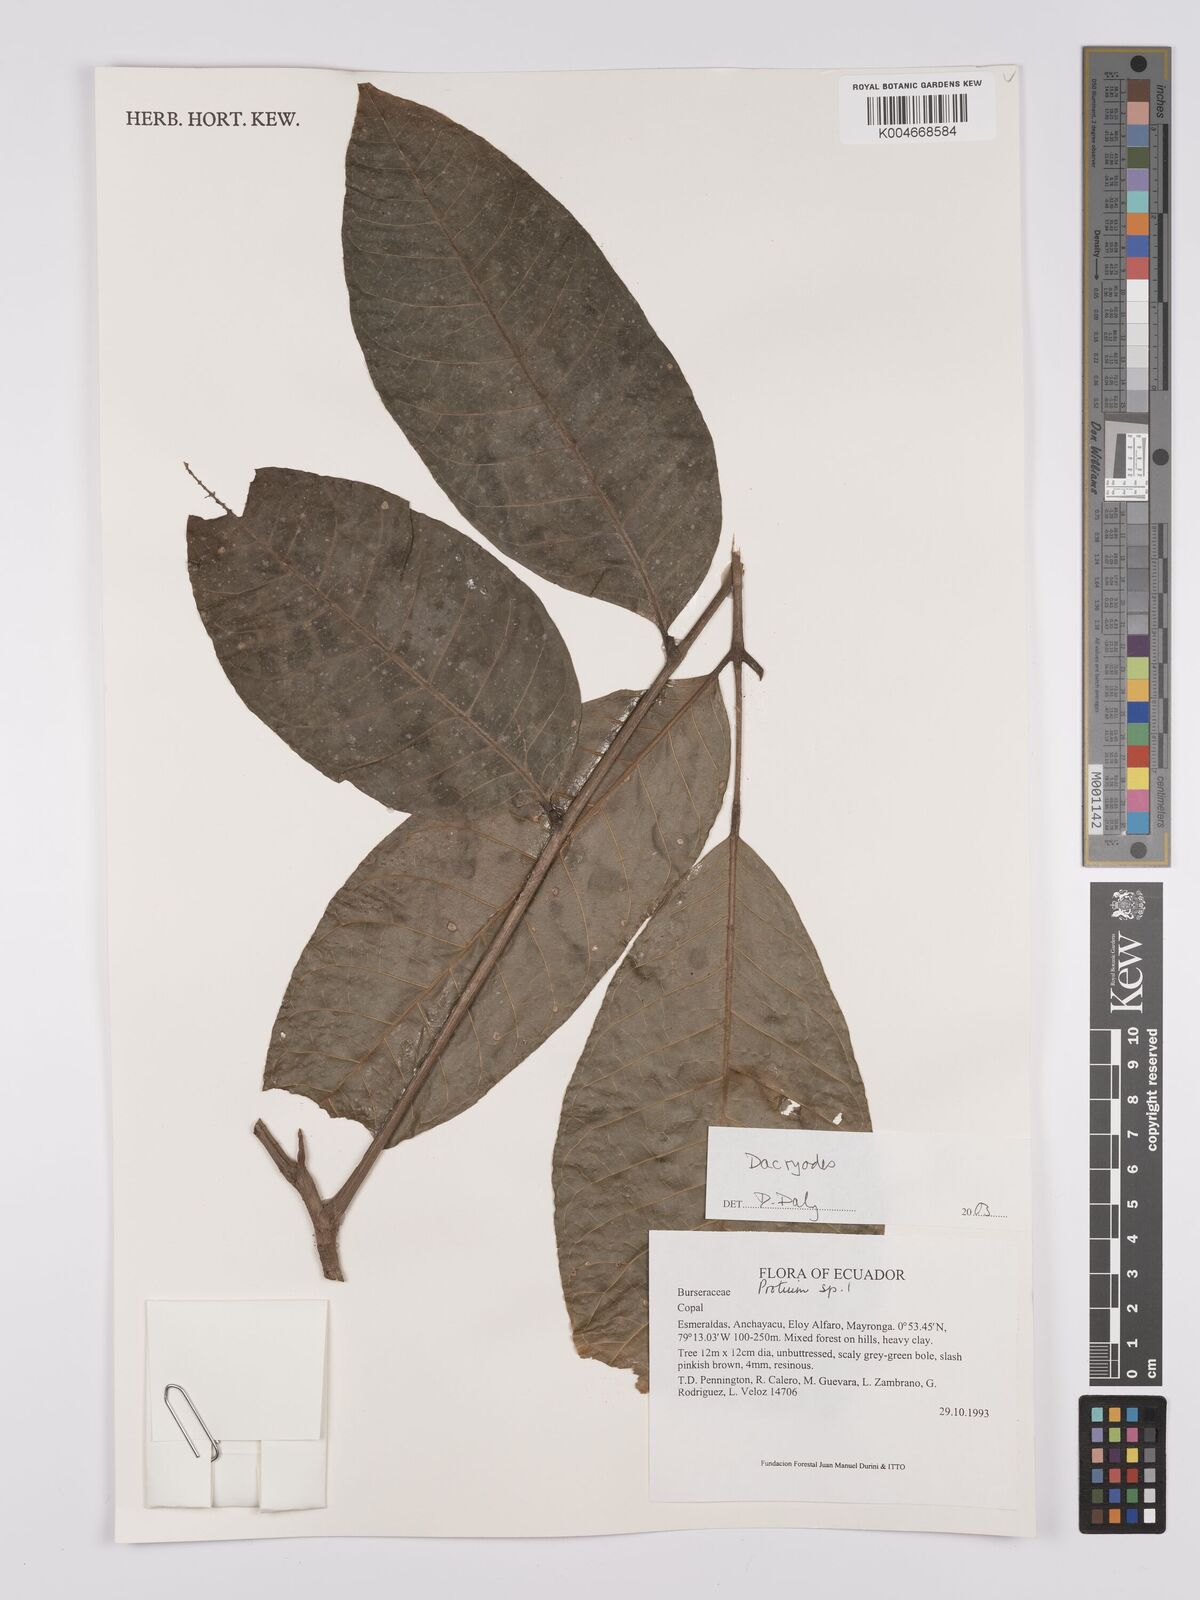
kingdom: Plantae
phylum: Tracheophyta
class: Magnoliopsida
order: Sapindales
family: Burseraceae
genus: Dacryodes
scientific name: Dacryodes
